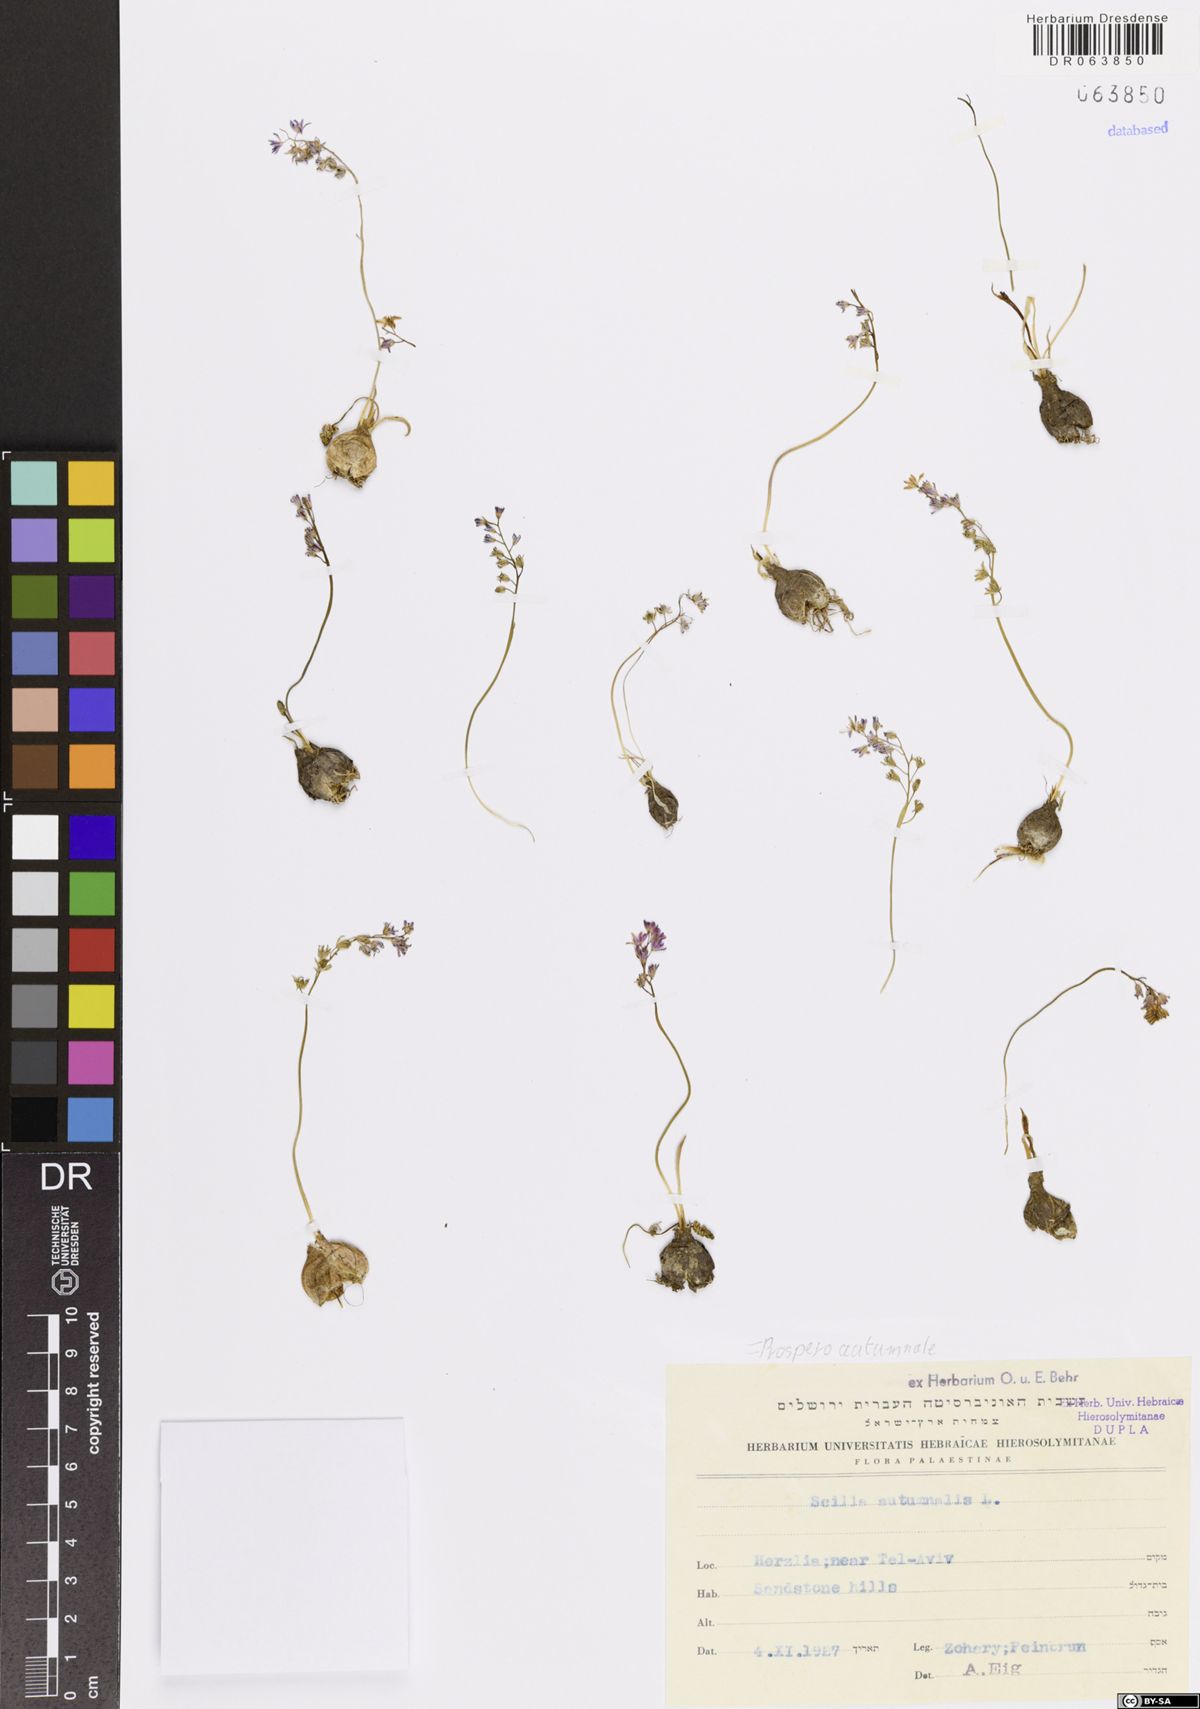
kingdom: Plantae
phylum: Tracheophyta
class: Liliopsida
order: Asparagales
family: Asparagaceae
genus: Prospero
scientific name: Prospero autumnale
